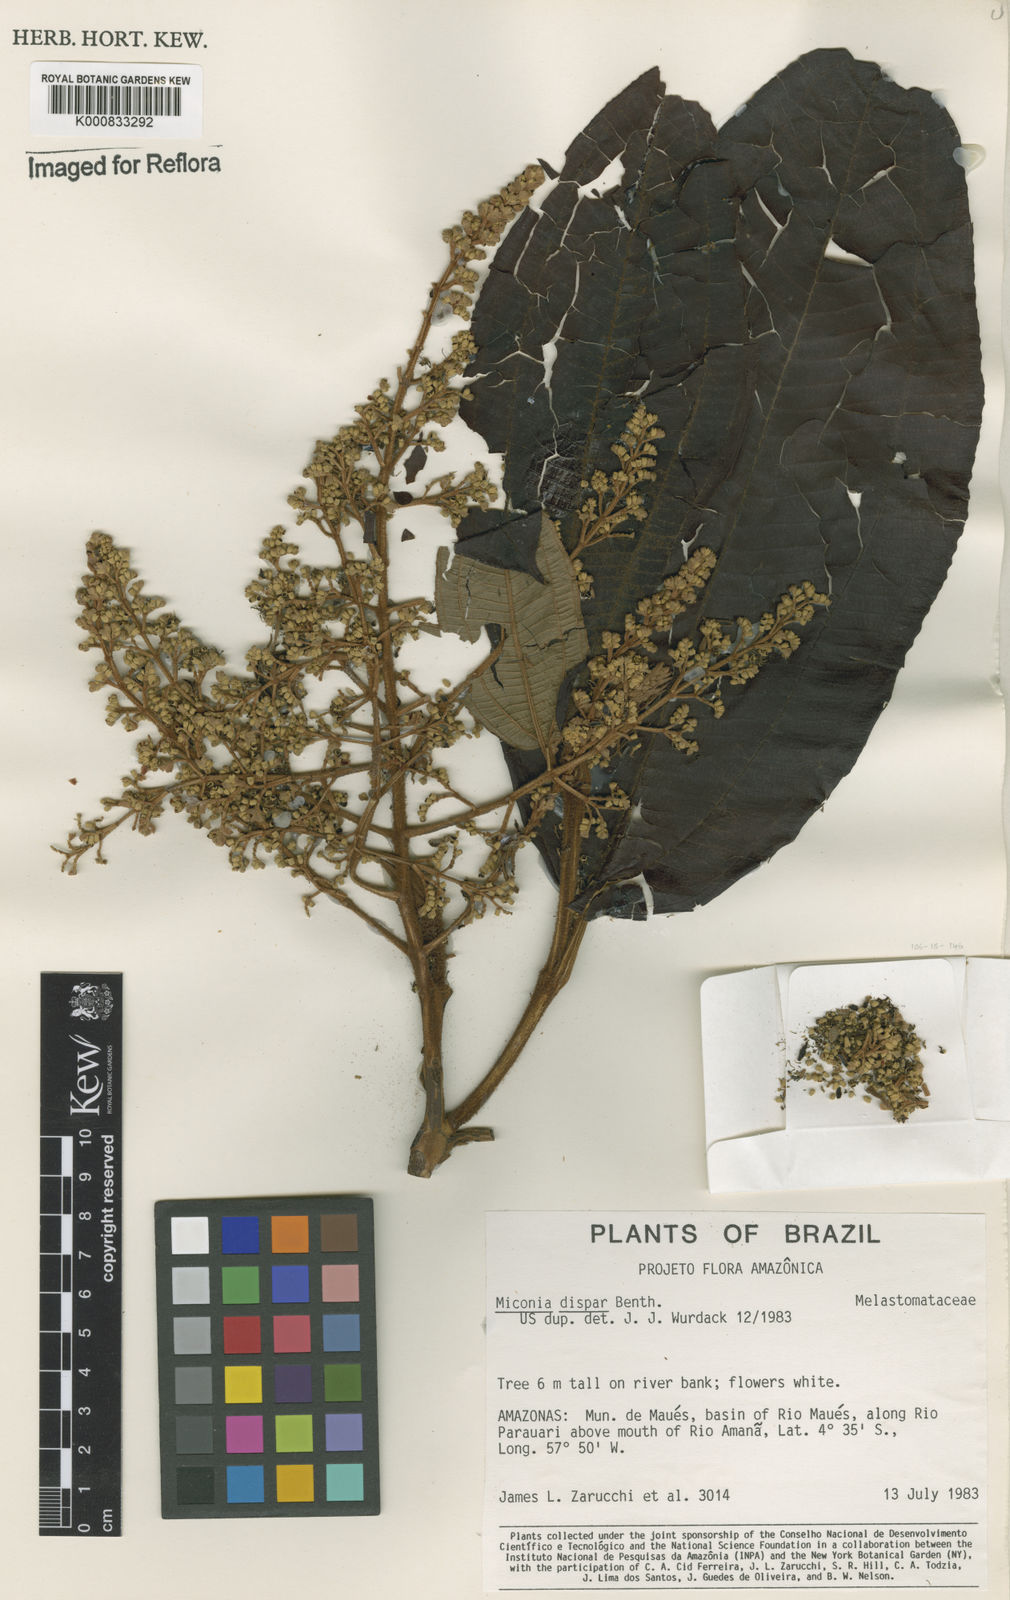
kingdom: Plantae
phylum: Tracheophyta
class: Magnoliopsida
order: Myrtales
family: Melastomataceae
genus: Miconia
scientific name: Miconia dispar
